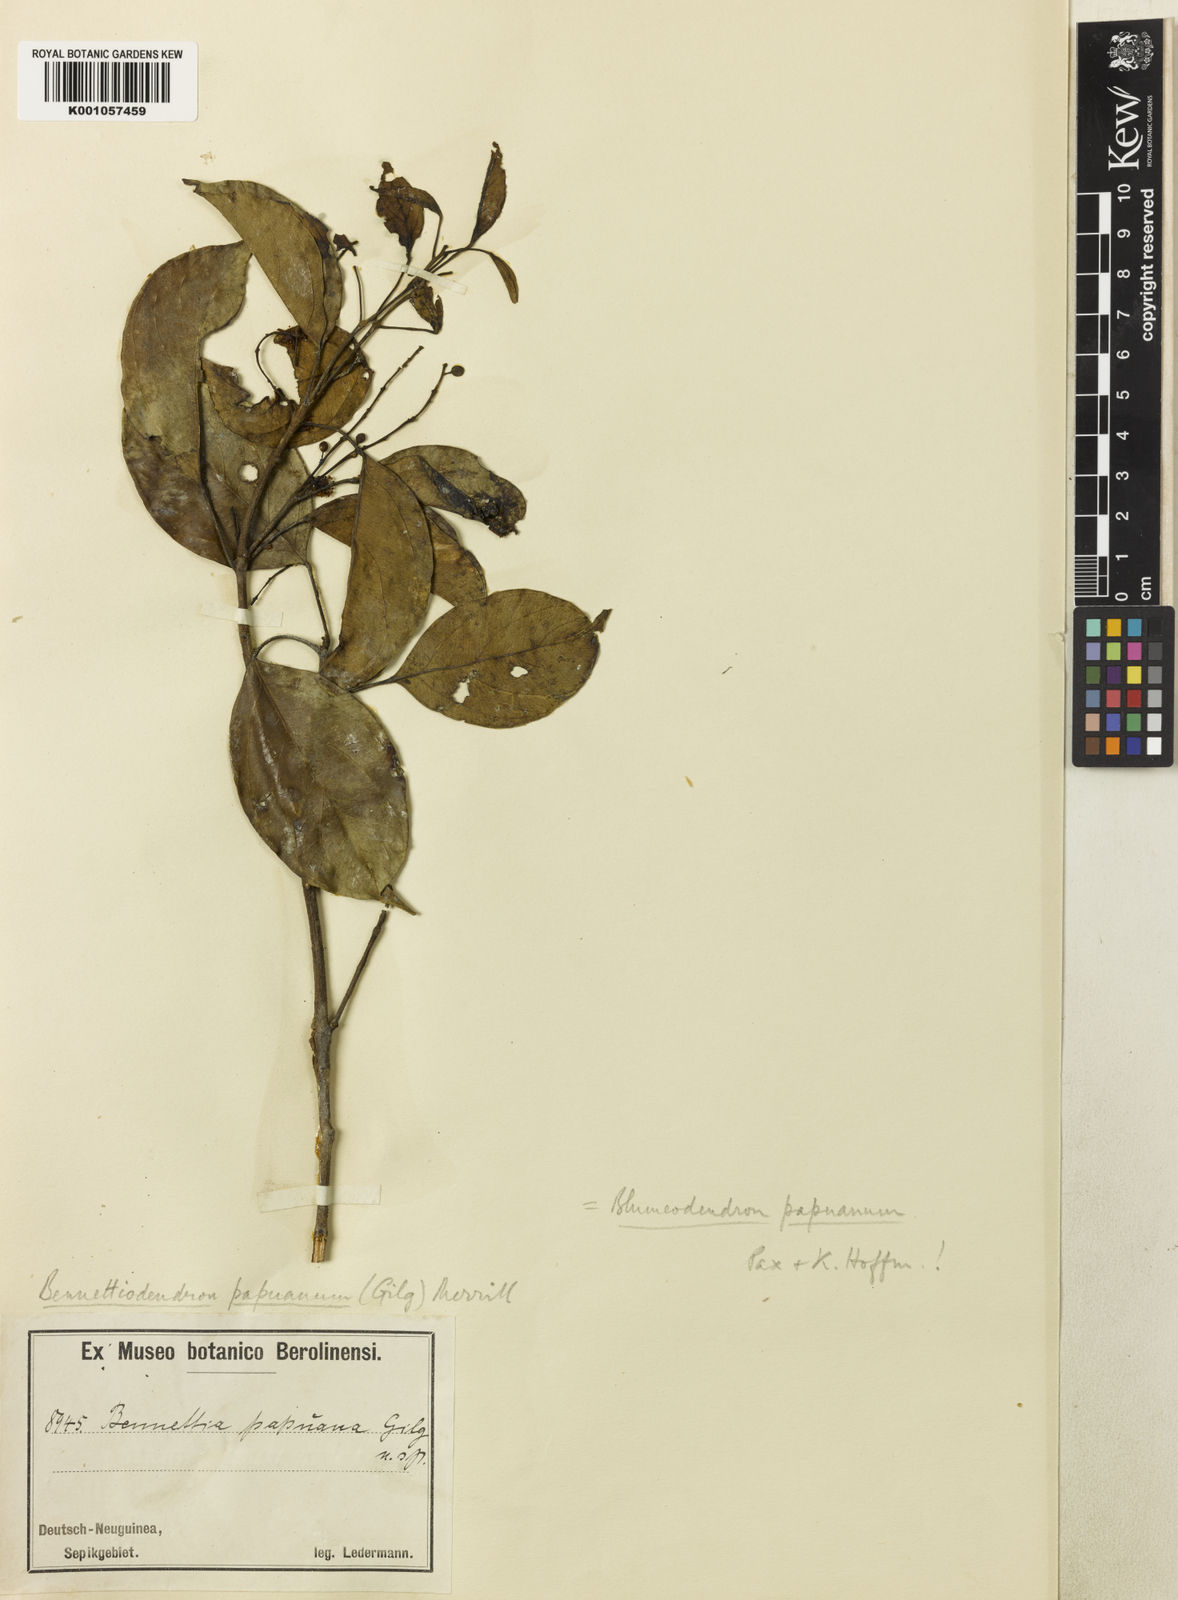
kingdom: Plantae
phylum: Tracheophyta
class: Magnoliopsida
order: Malpighiales
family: Euphorbiaceae
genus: Blumeodendron
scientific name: Blumeodendron tokbrai
